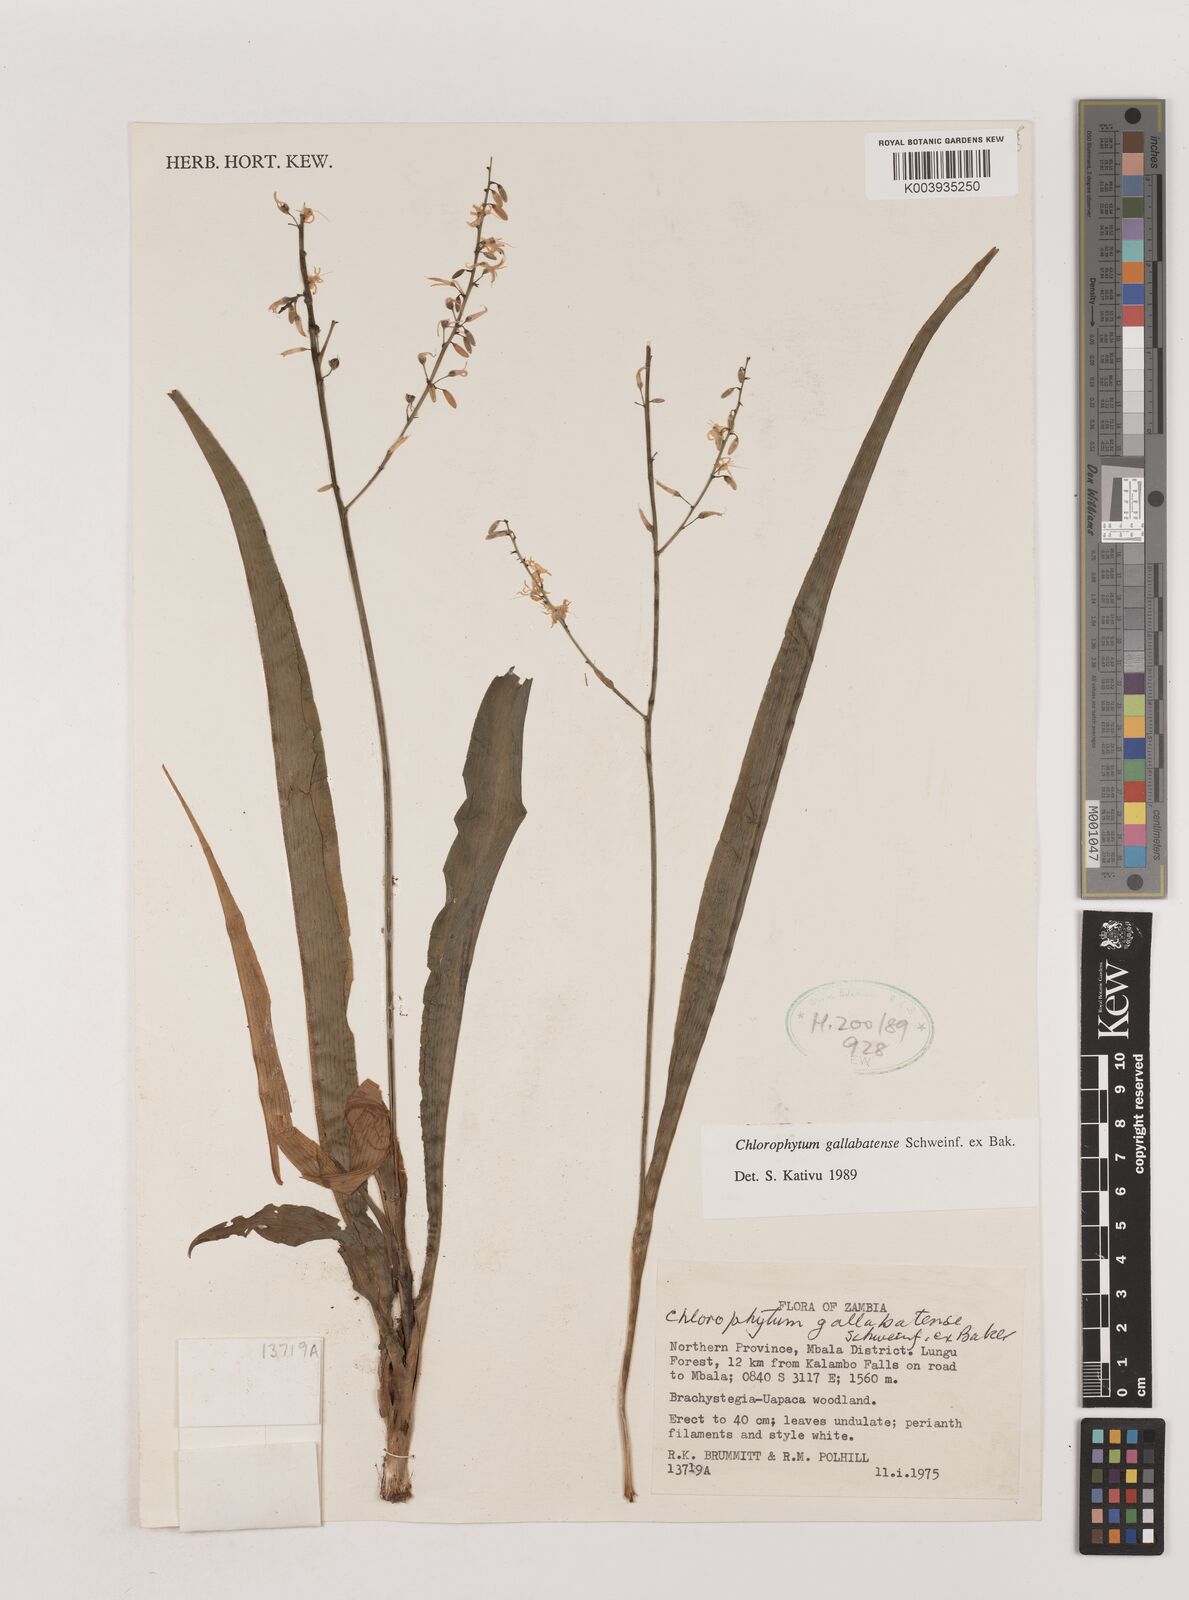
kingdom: Plantae
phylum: Tracheophyta
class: Liliopsida
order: Asparagales
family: Asparagaceae
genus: Chlorophytum
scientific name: Chlorophytum gallabatense
